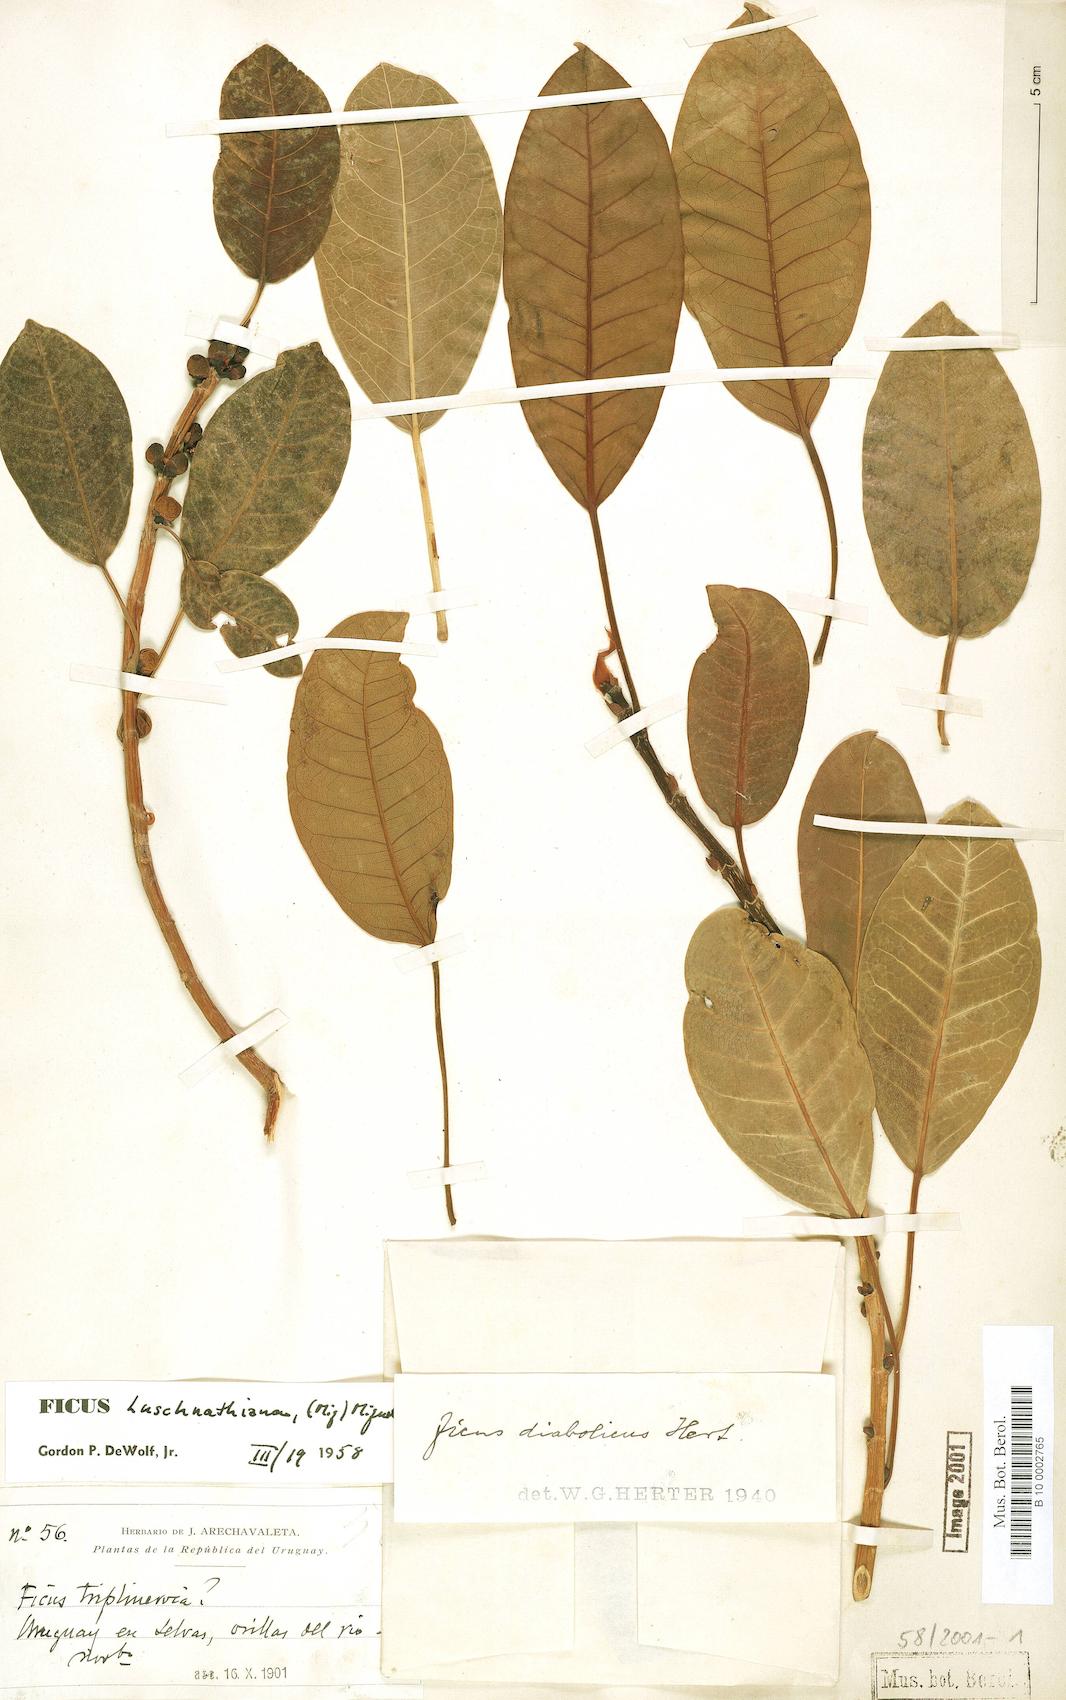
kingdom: Plantae
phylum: Tracheophyta
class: Magnoliopsida
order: Rosales
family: Moraceae
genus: Ficus
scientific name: Ficus luschnathiana
